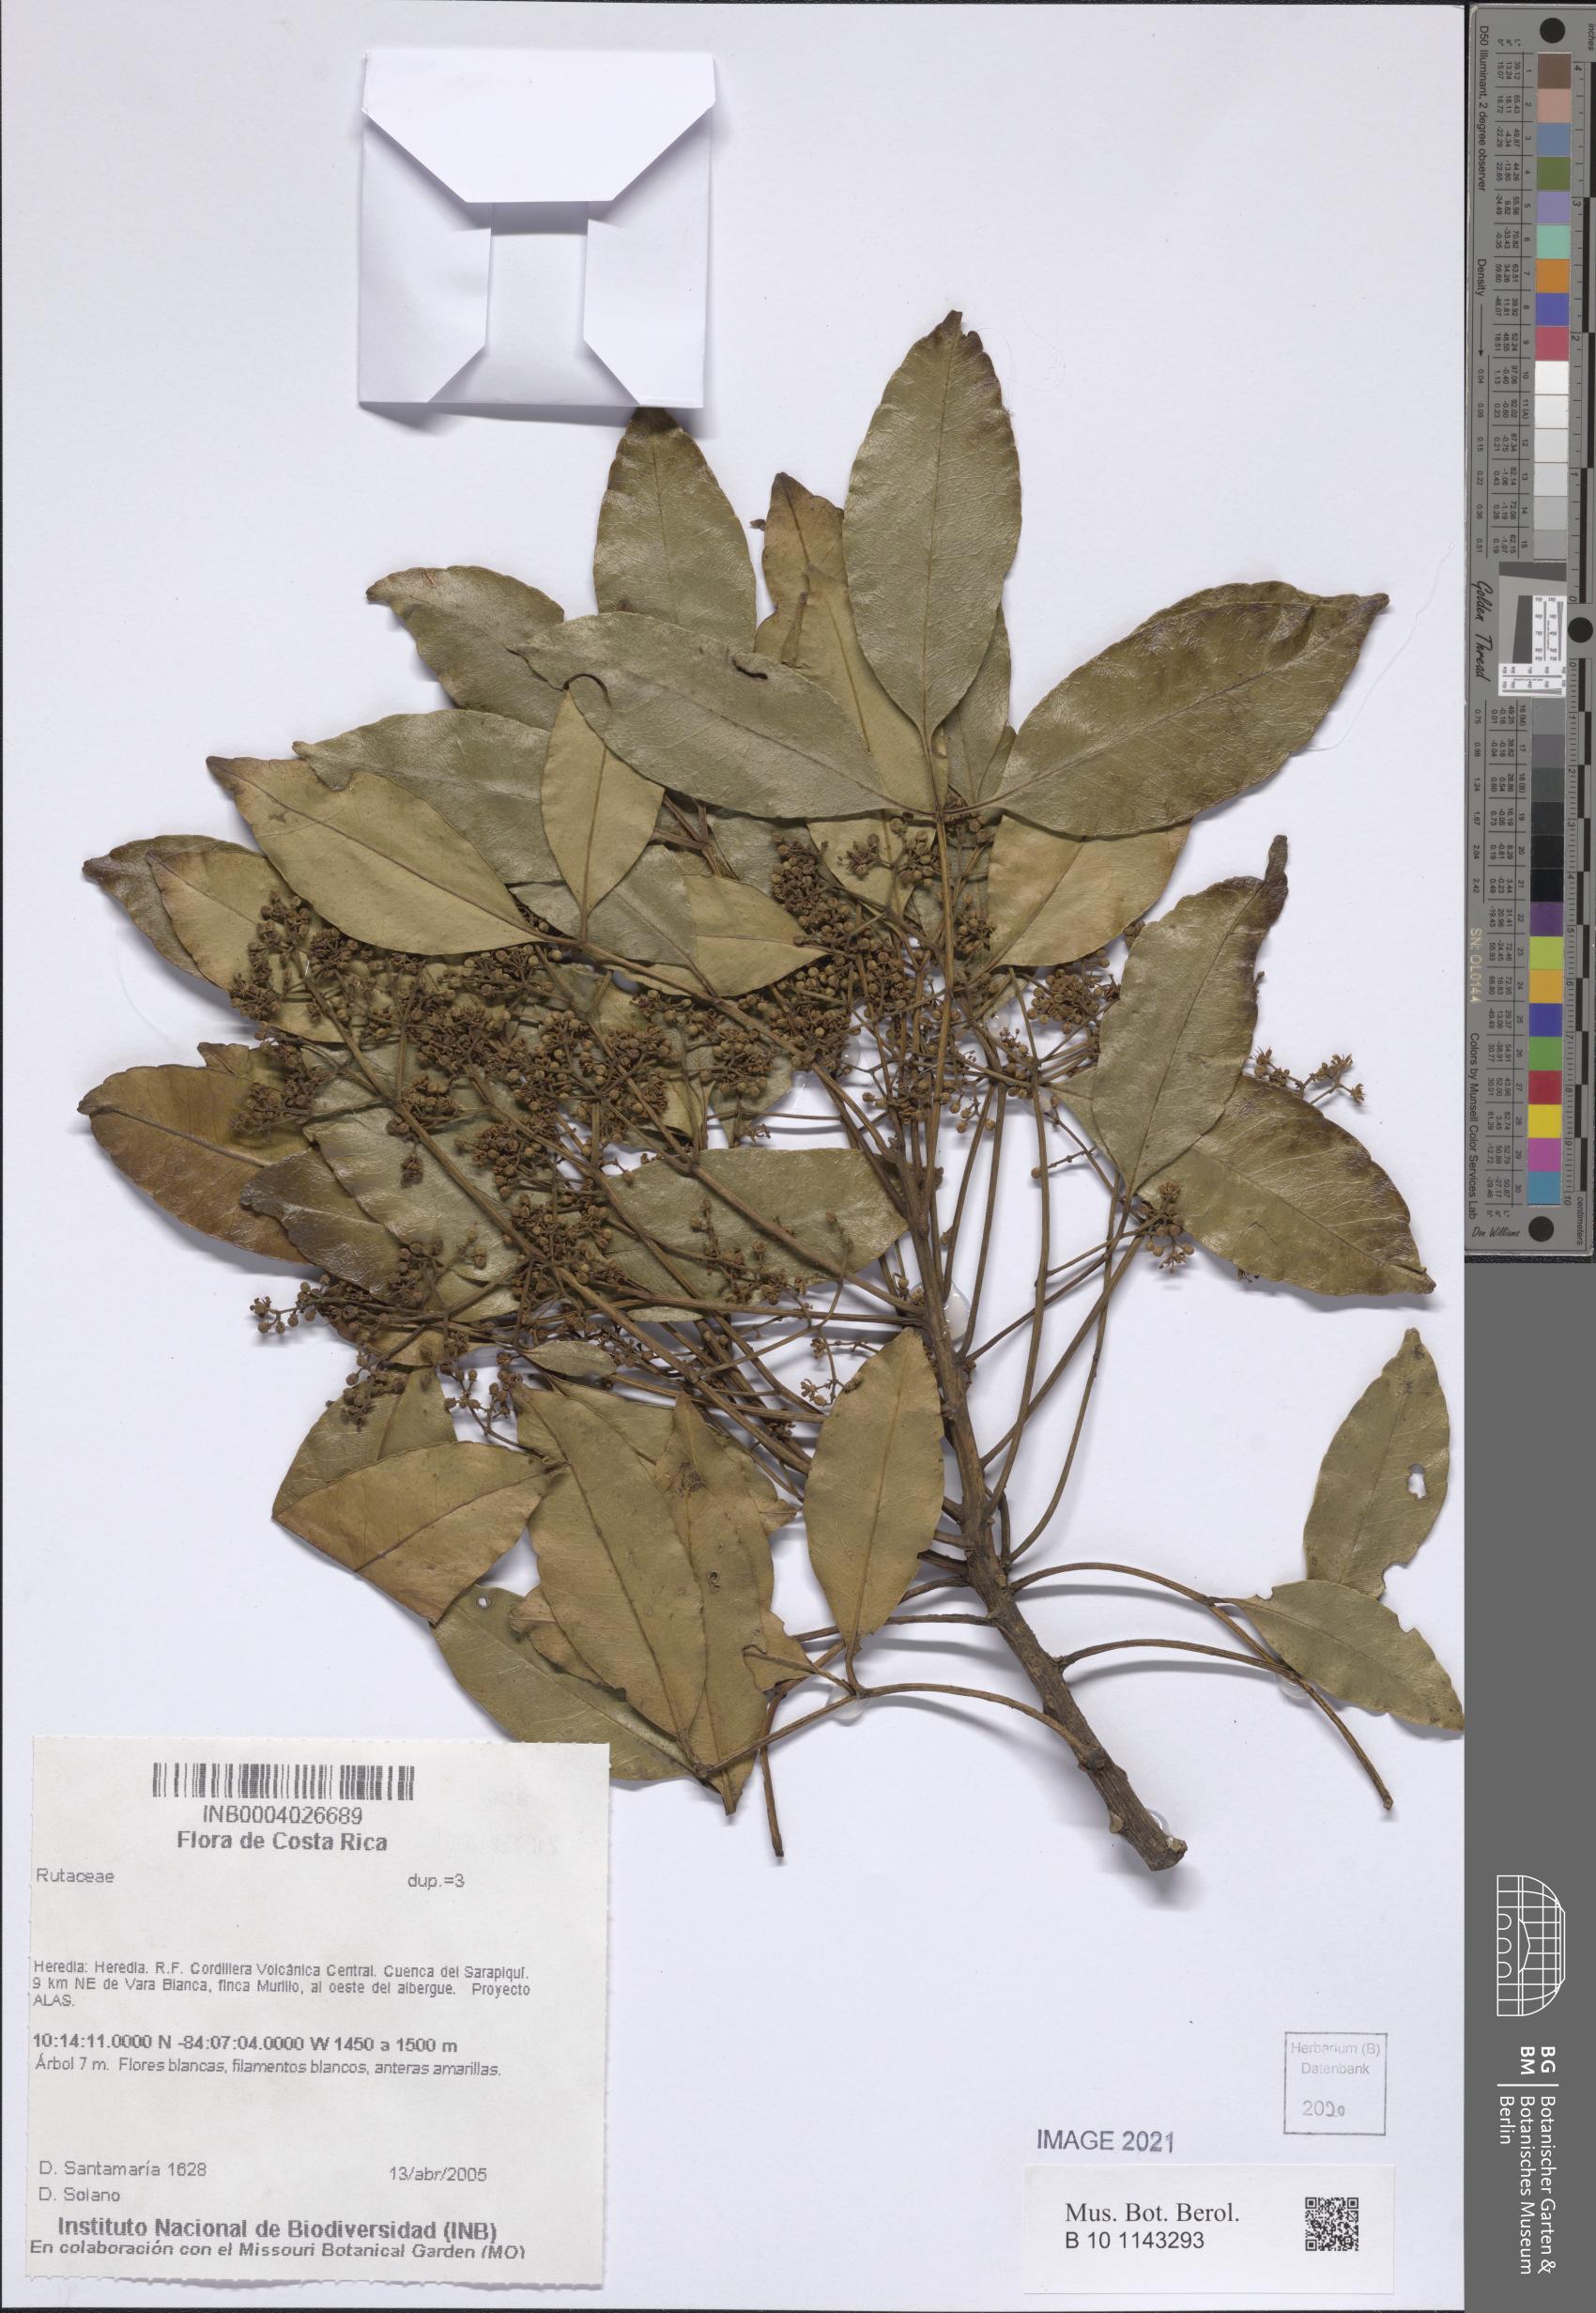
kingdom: Plantae
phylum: Tracheophyta
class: Magnoliopsida
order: Sapindales
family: Rutaceae
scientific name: Rutaceae
